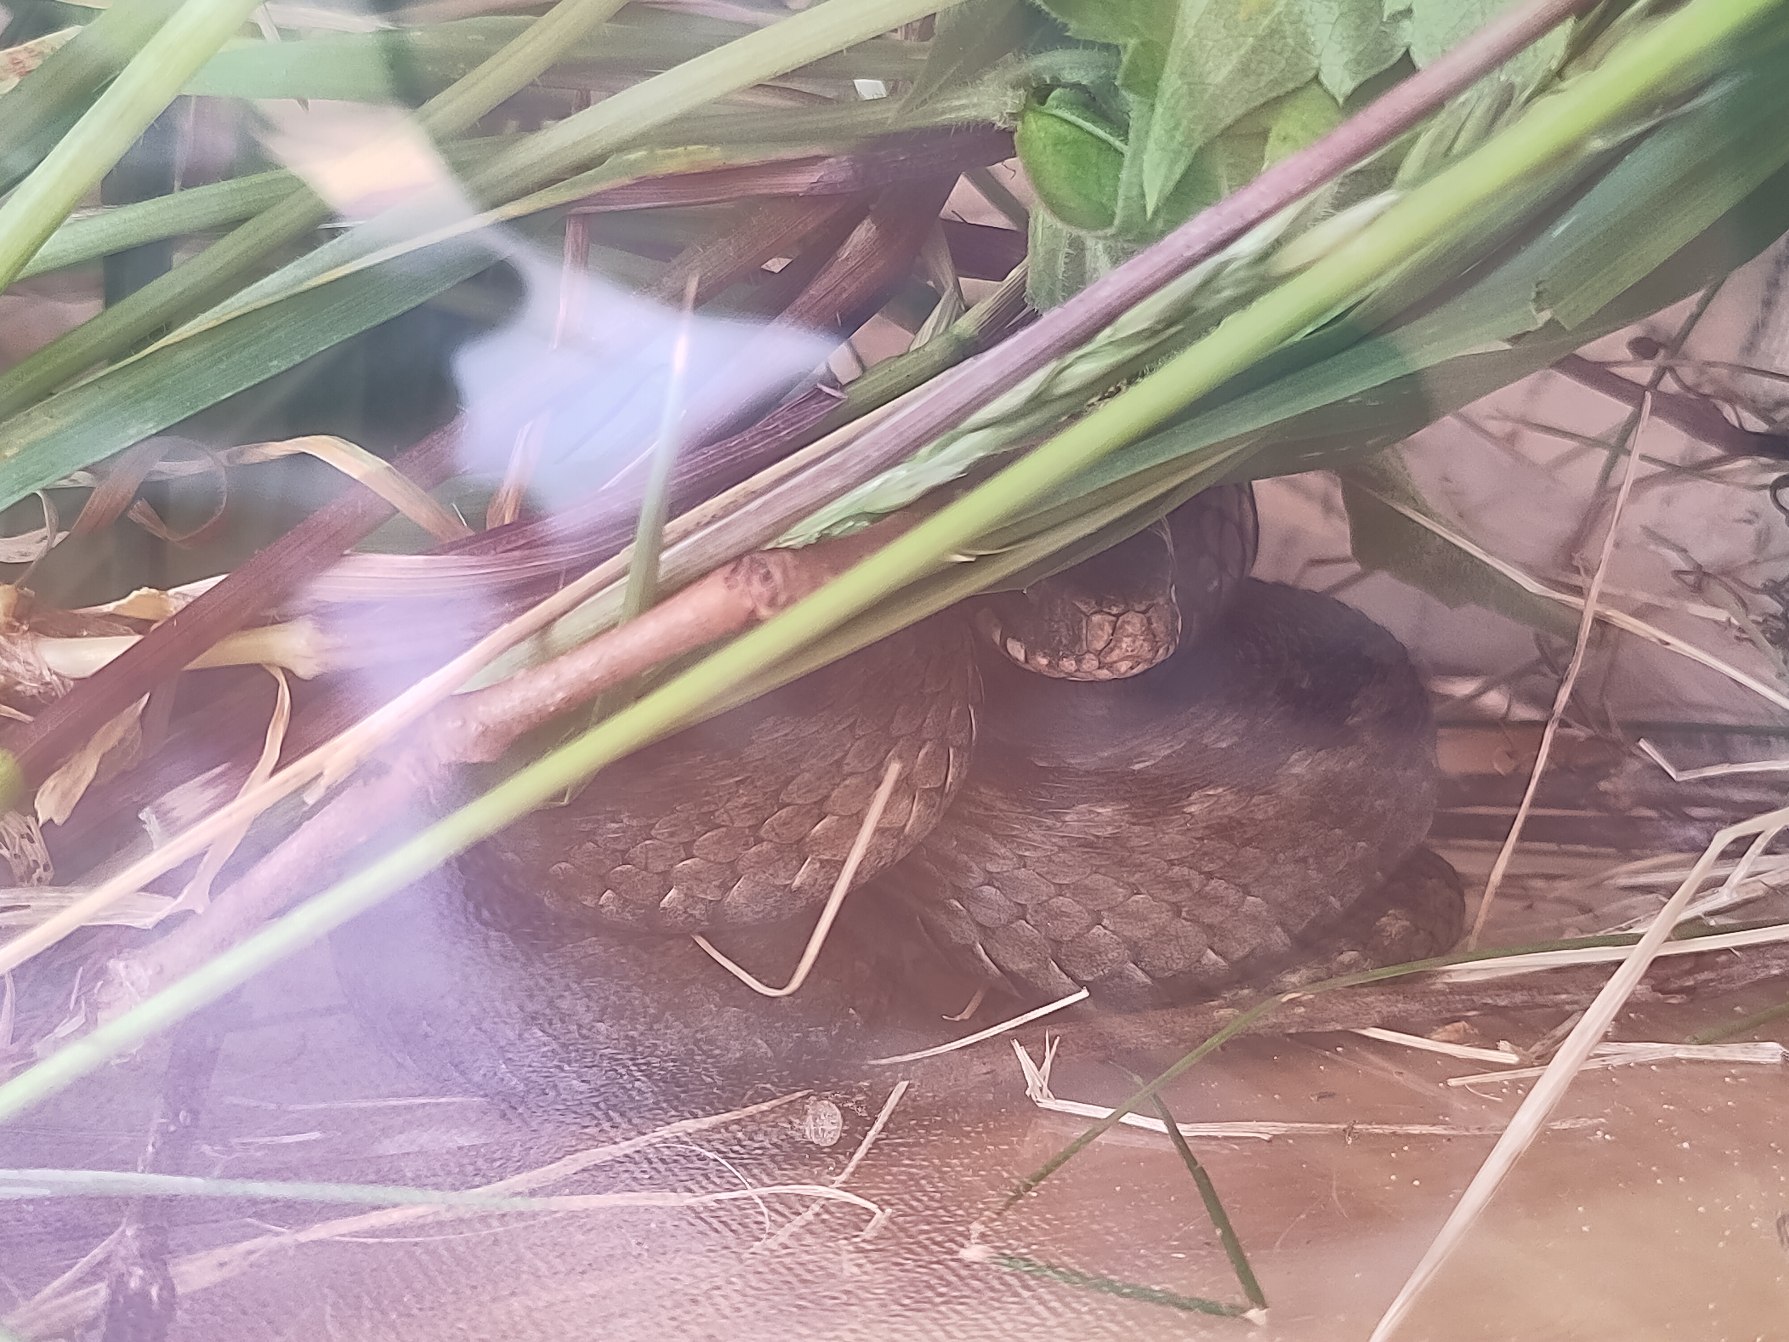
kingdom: Animalia
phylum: Chordata
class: Squamata
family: Viperidae
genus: Vipera
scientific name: Vipera berus
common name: Hugorm
